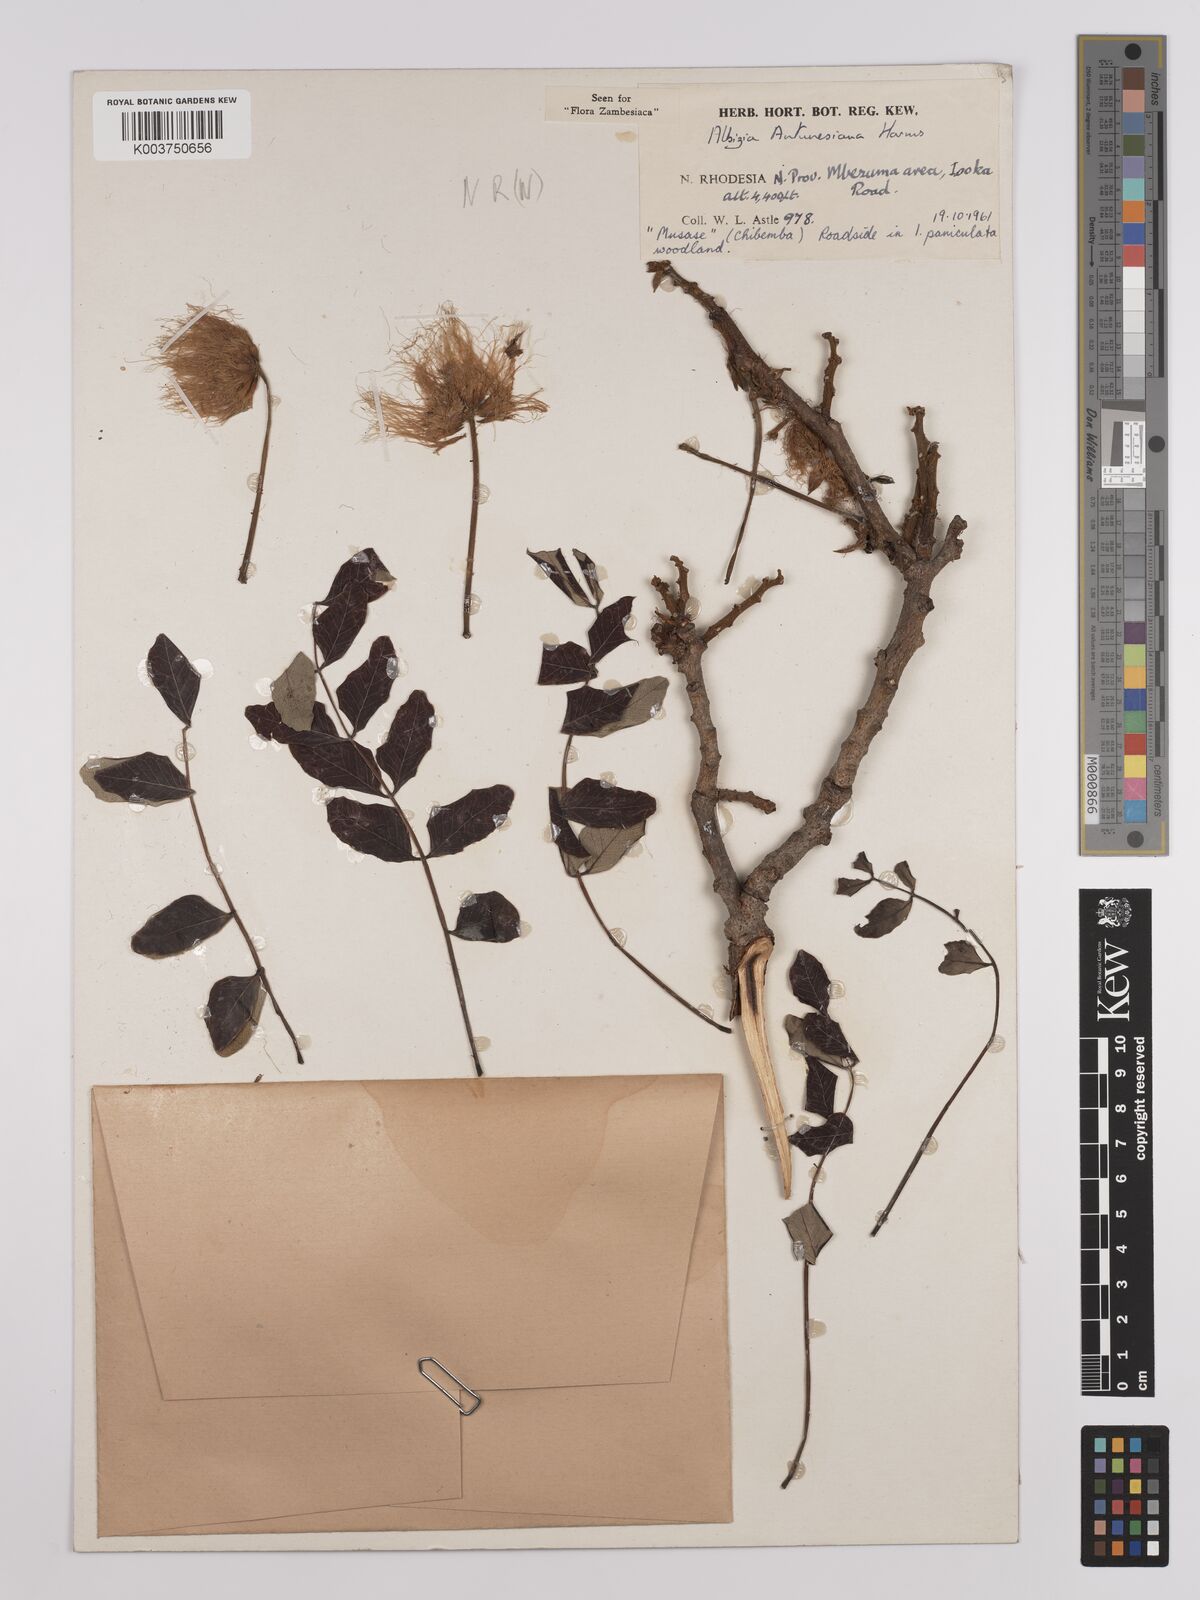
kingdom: Plantae
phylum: Tracheophyta
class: Magnoliopsida
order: Fabales
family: Fabaceae
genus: Albizia
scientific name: Albizia antunesiana
